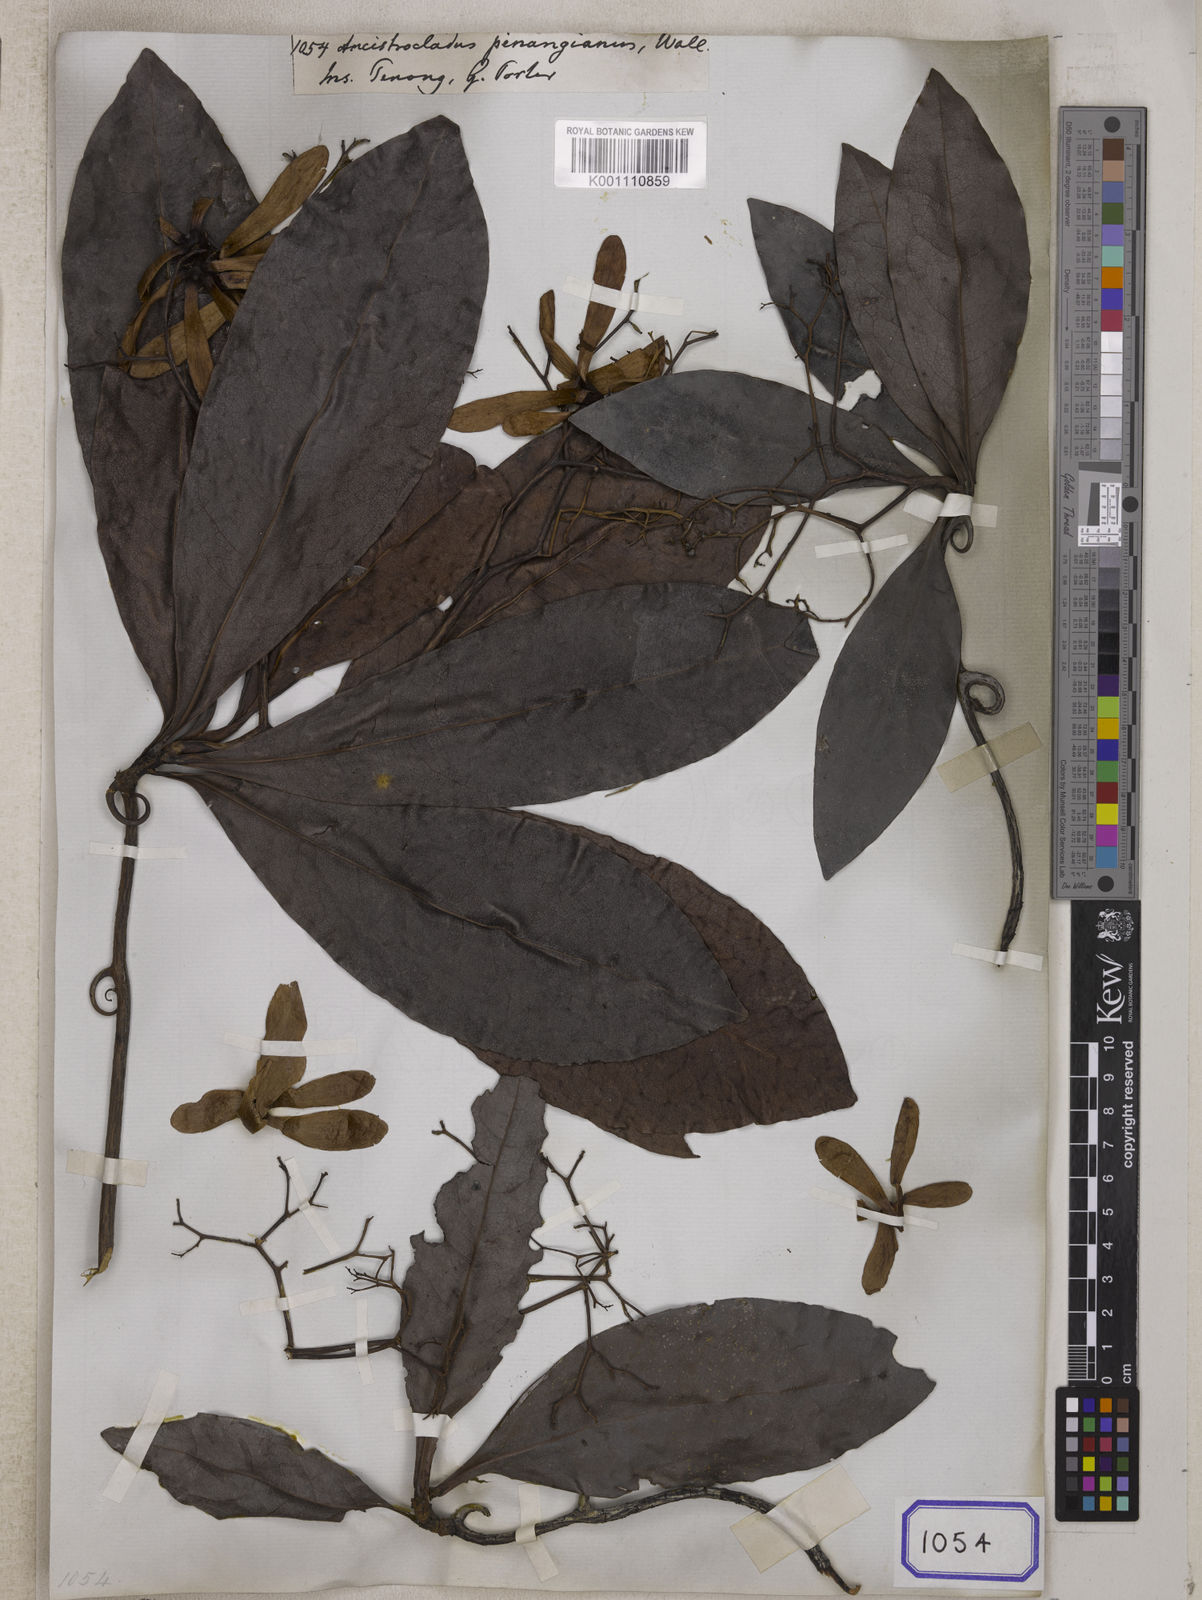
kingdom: Plantae
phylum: Tracheophyta
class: Magnoliopsida
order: Caryophyllales
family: Ancistrocladaceae
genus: Ancistrocladus
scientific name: Ancistrocladus
